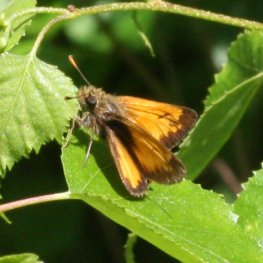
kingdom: Animalia
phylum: Arthropoda
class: Insecta
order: Lepidoptera
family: Hesperiidae
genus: Lon
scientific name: Lon hobomok
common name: Hobomok Skipper
